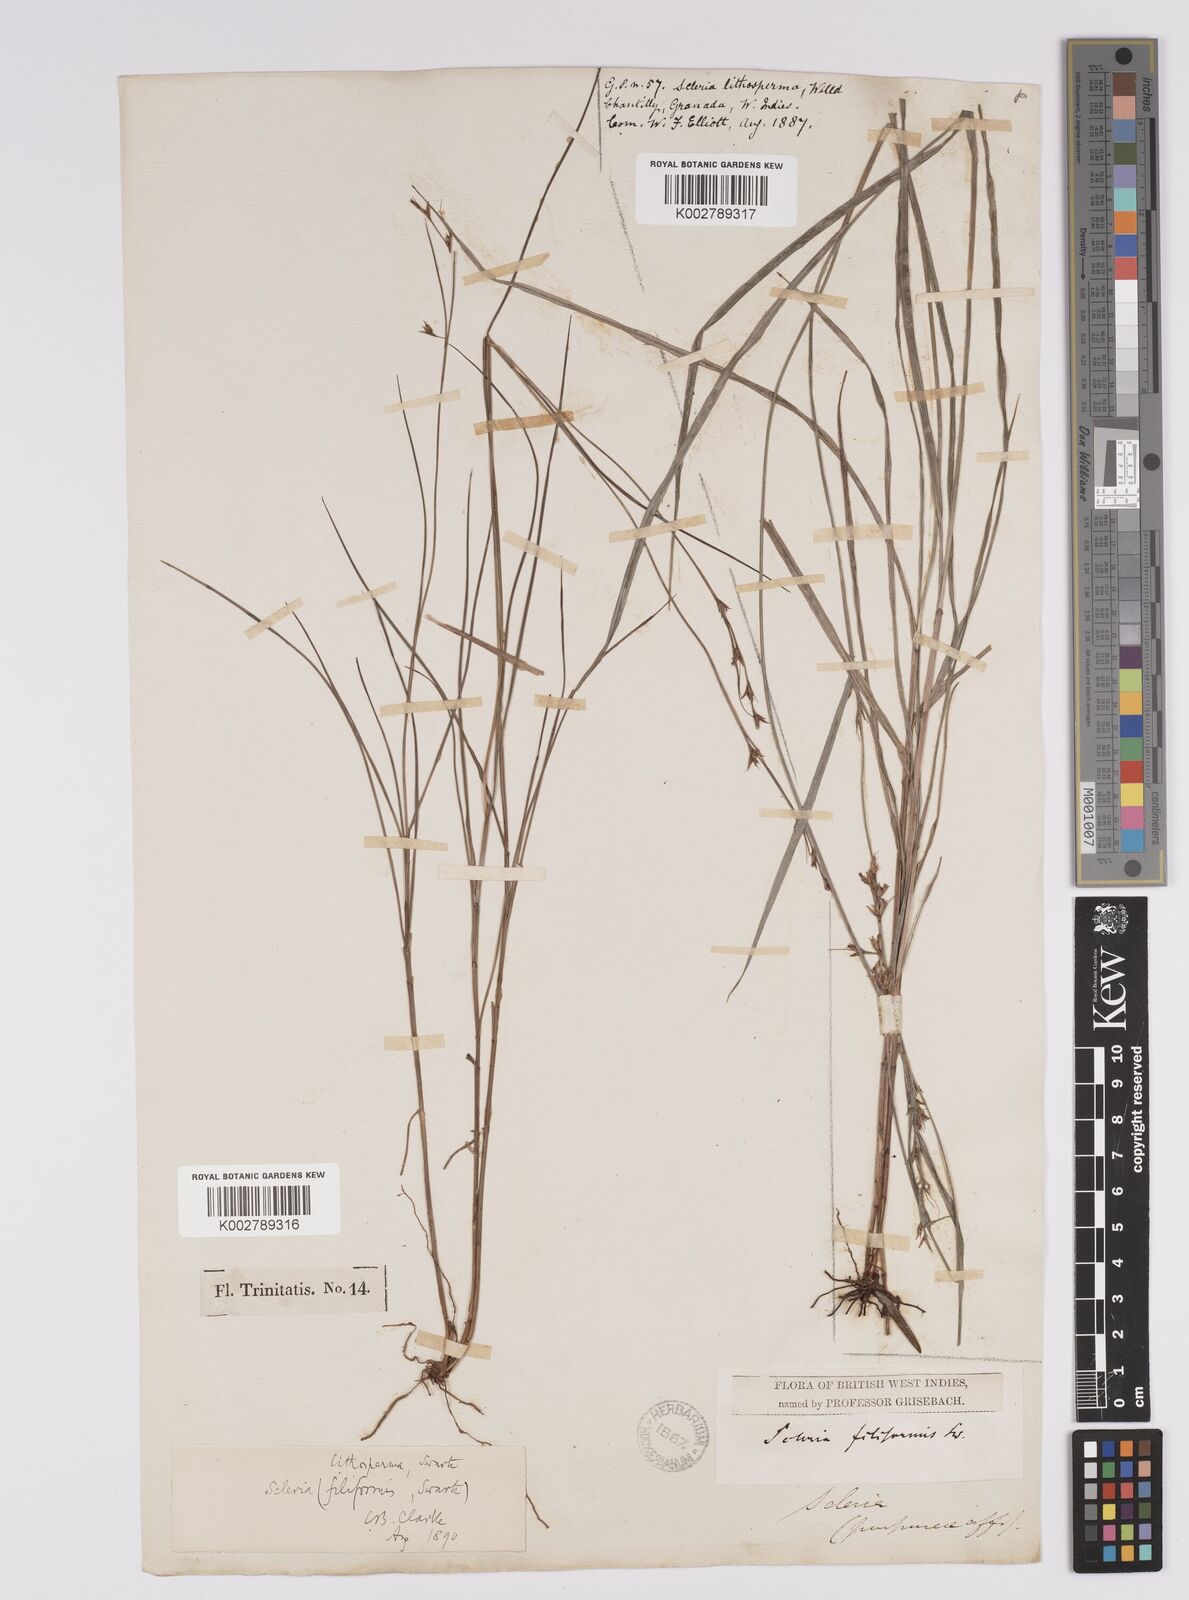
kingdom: Plantae
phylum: Tracheophyta
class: Liliopsida
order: Poales
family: Cyperaceae
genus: Scleria
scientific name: Scleria lithosperma
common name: Florida keys nut-rush
